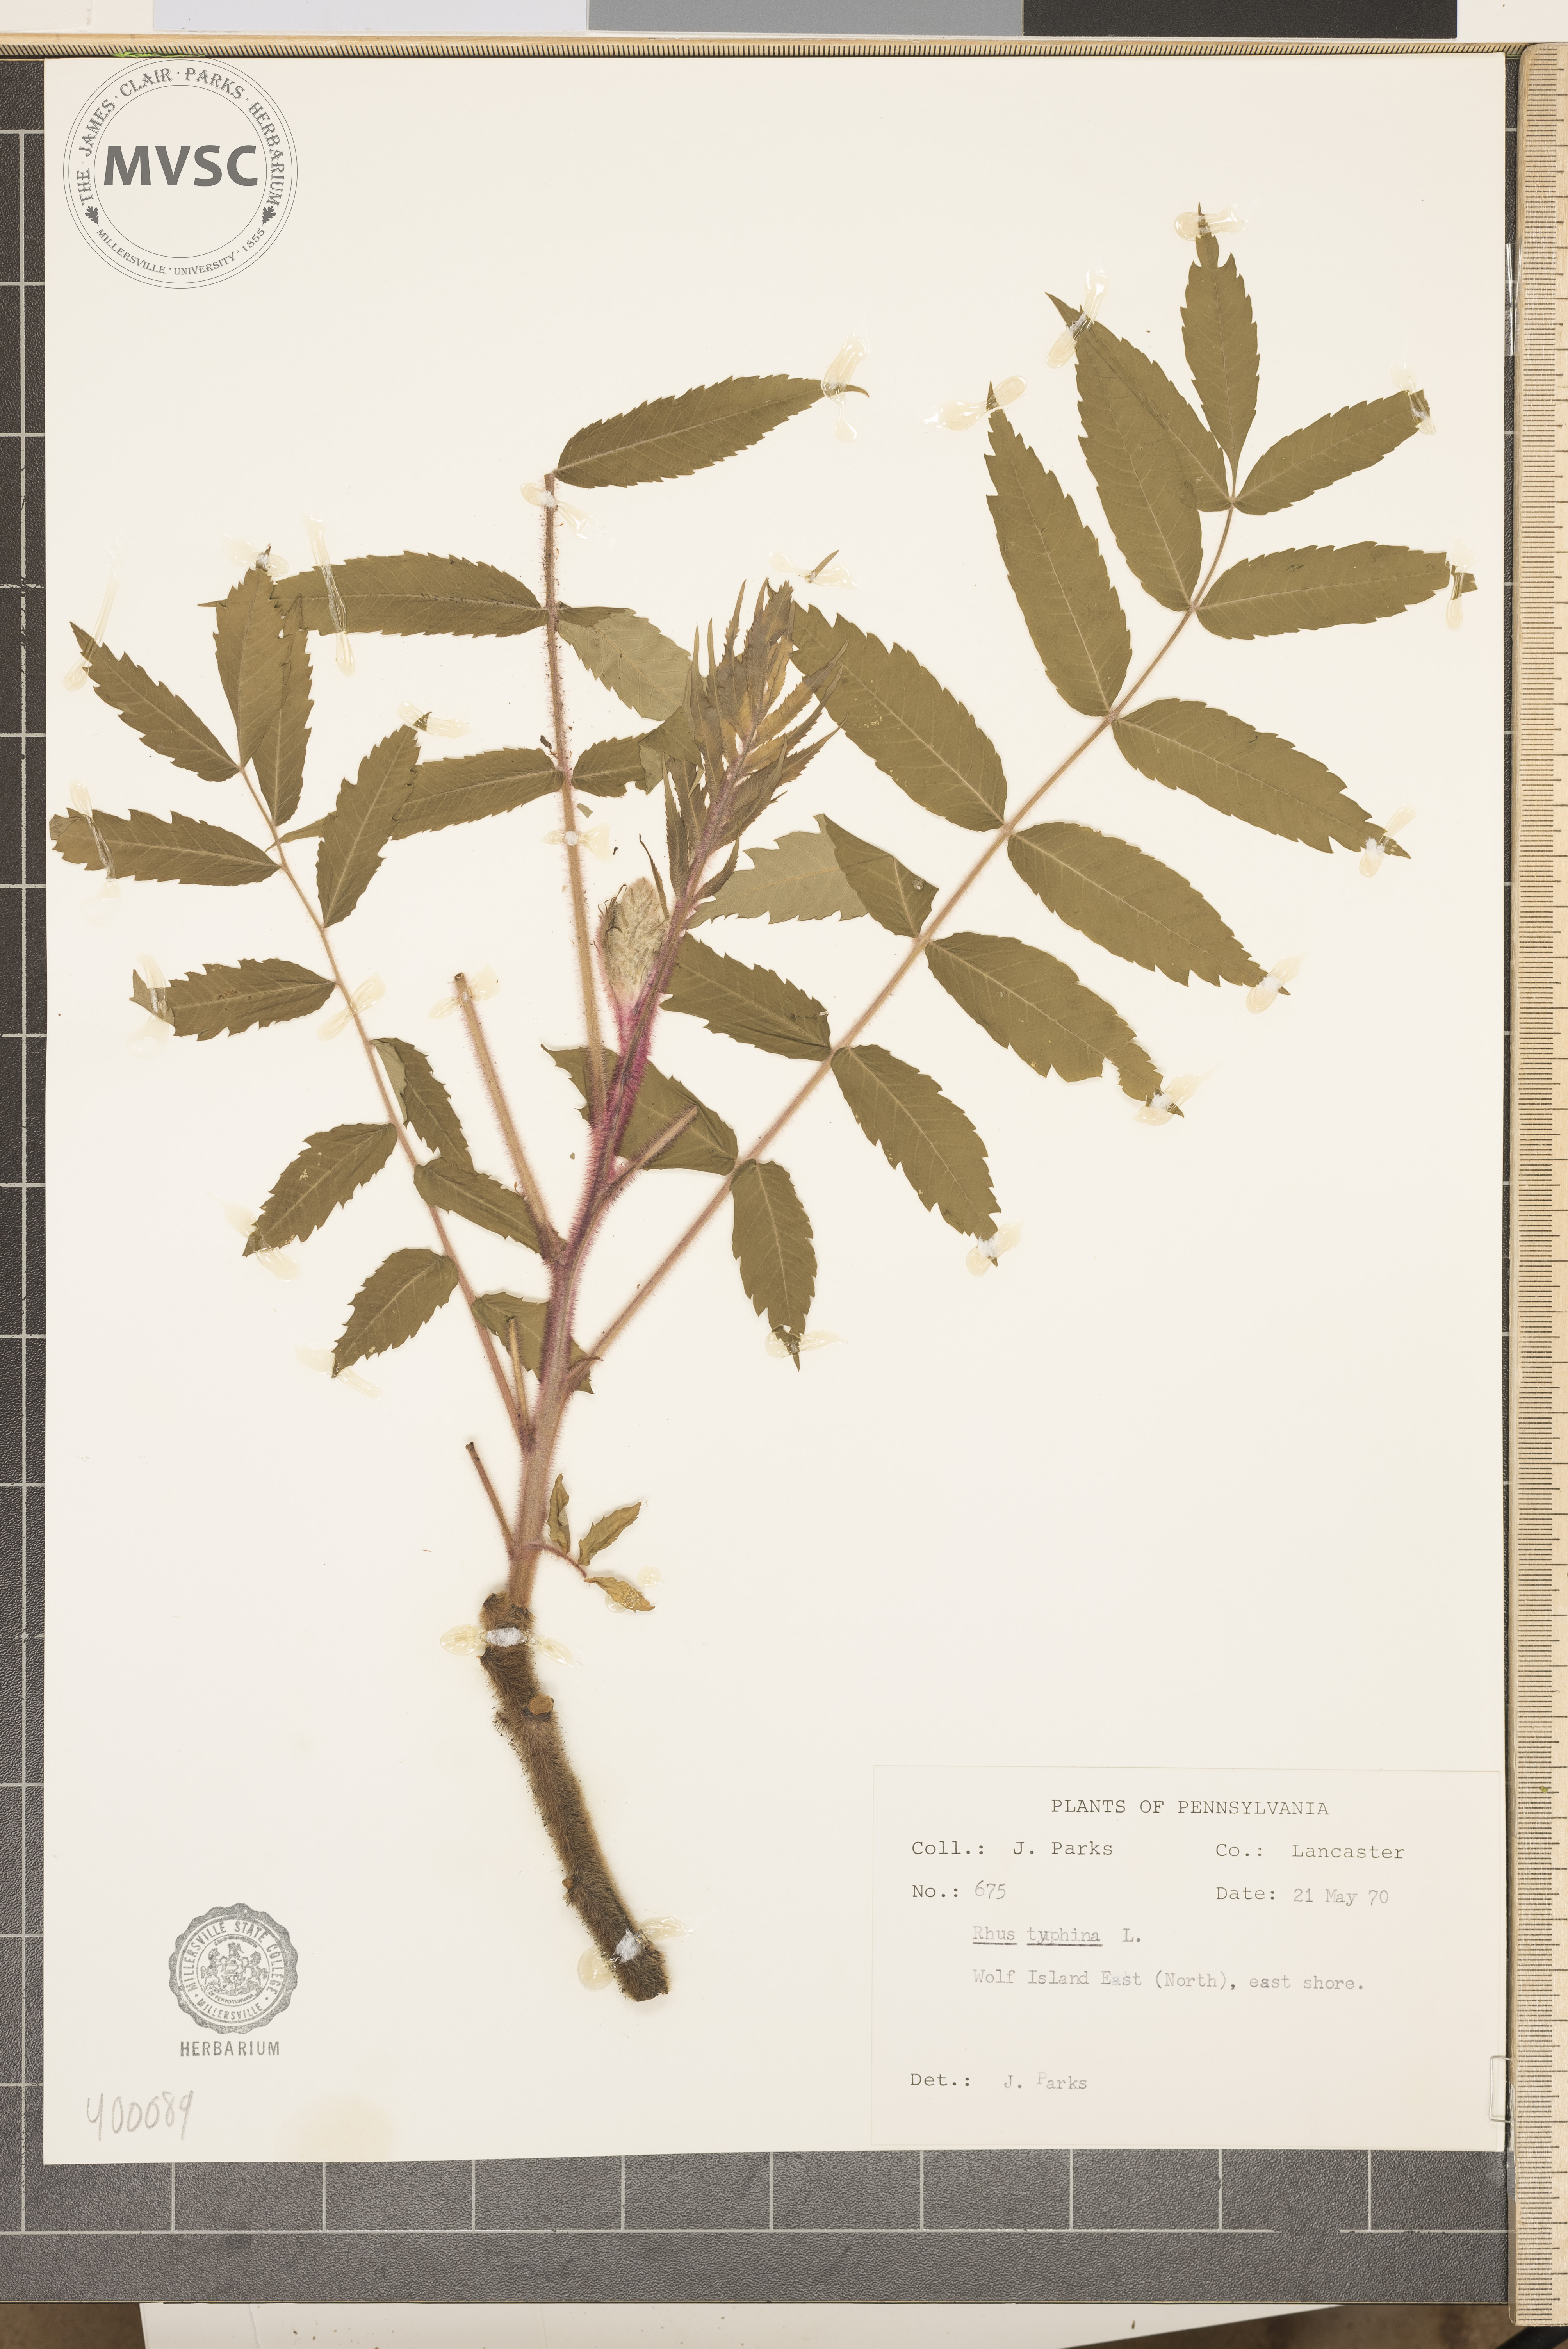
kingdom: Plantae
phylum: Tracheophyta
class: Magnoliopsida
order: Sapindales
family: Anacardiaceae
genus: Rhus
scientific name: Rhus typhina
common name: sumac
